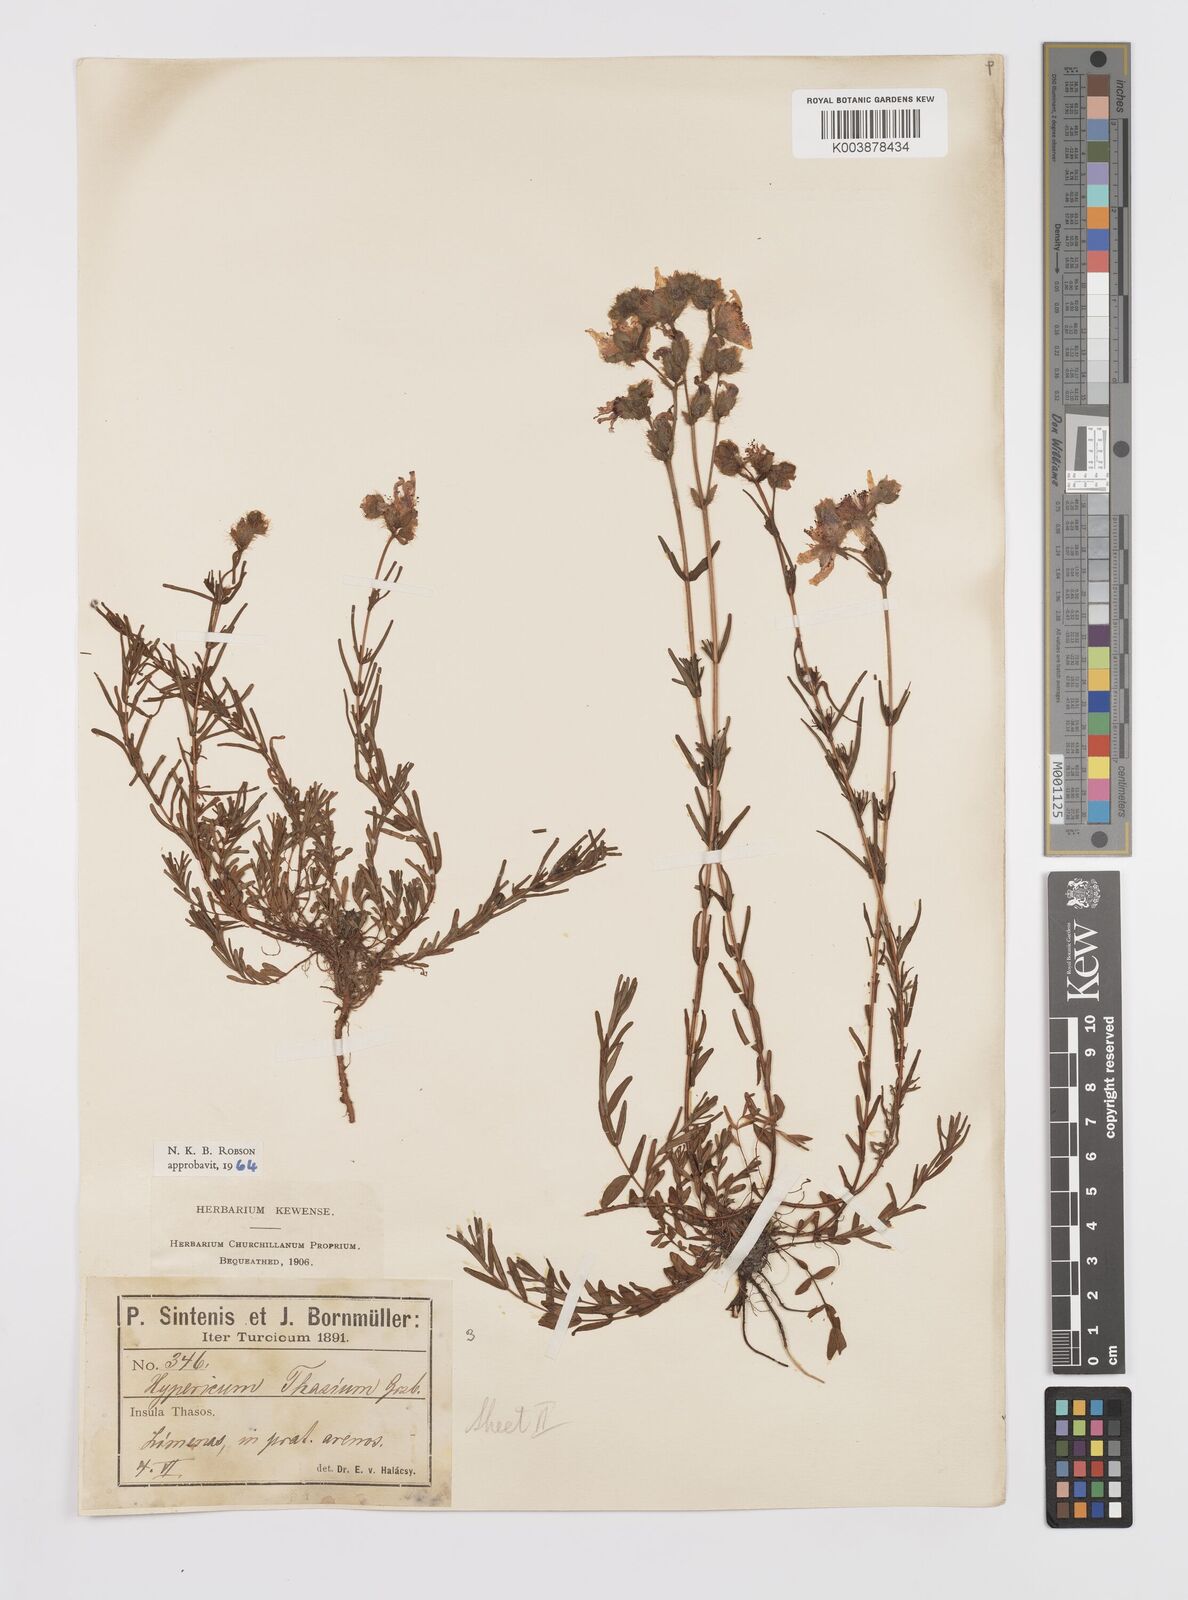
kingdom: Plantae
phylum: Tracheophyta
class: Magnoliopsida
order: Malpighiales
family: Hypericaceae
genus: Hypericum
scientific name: Hypericum thasium
